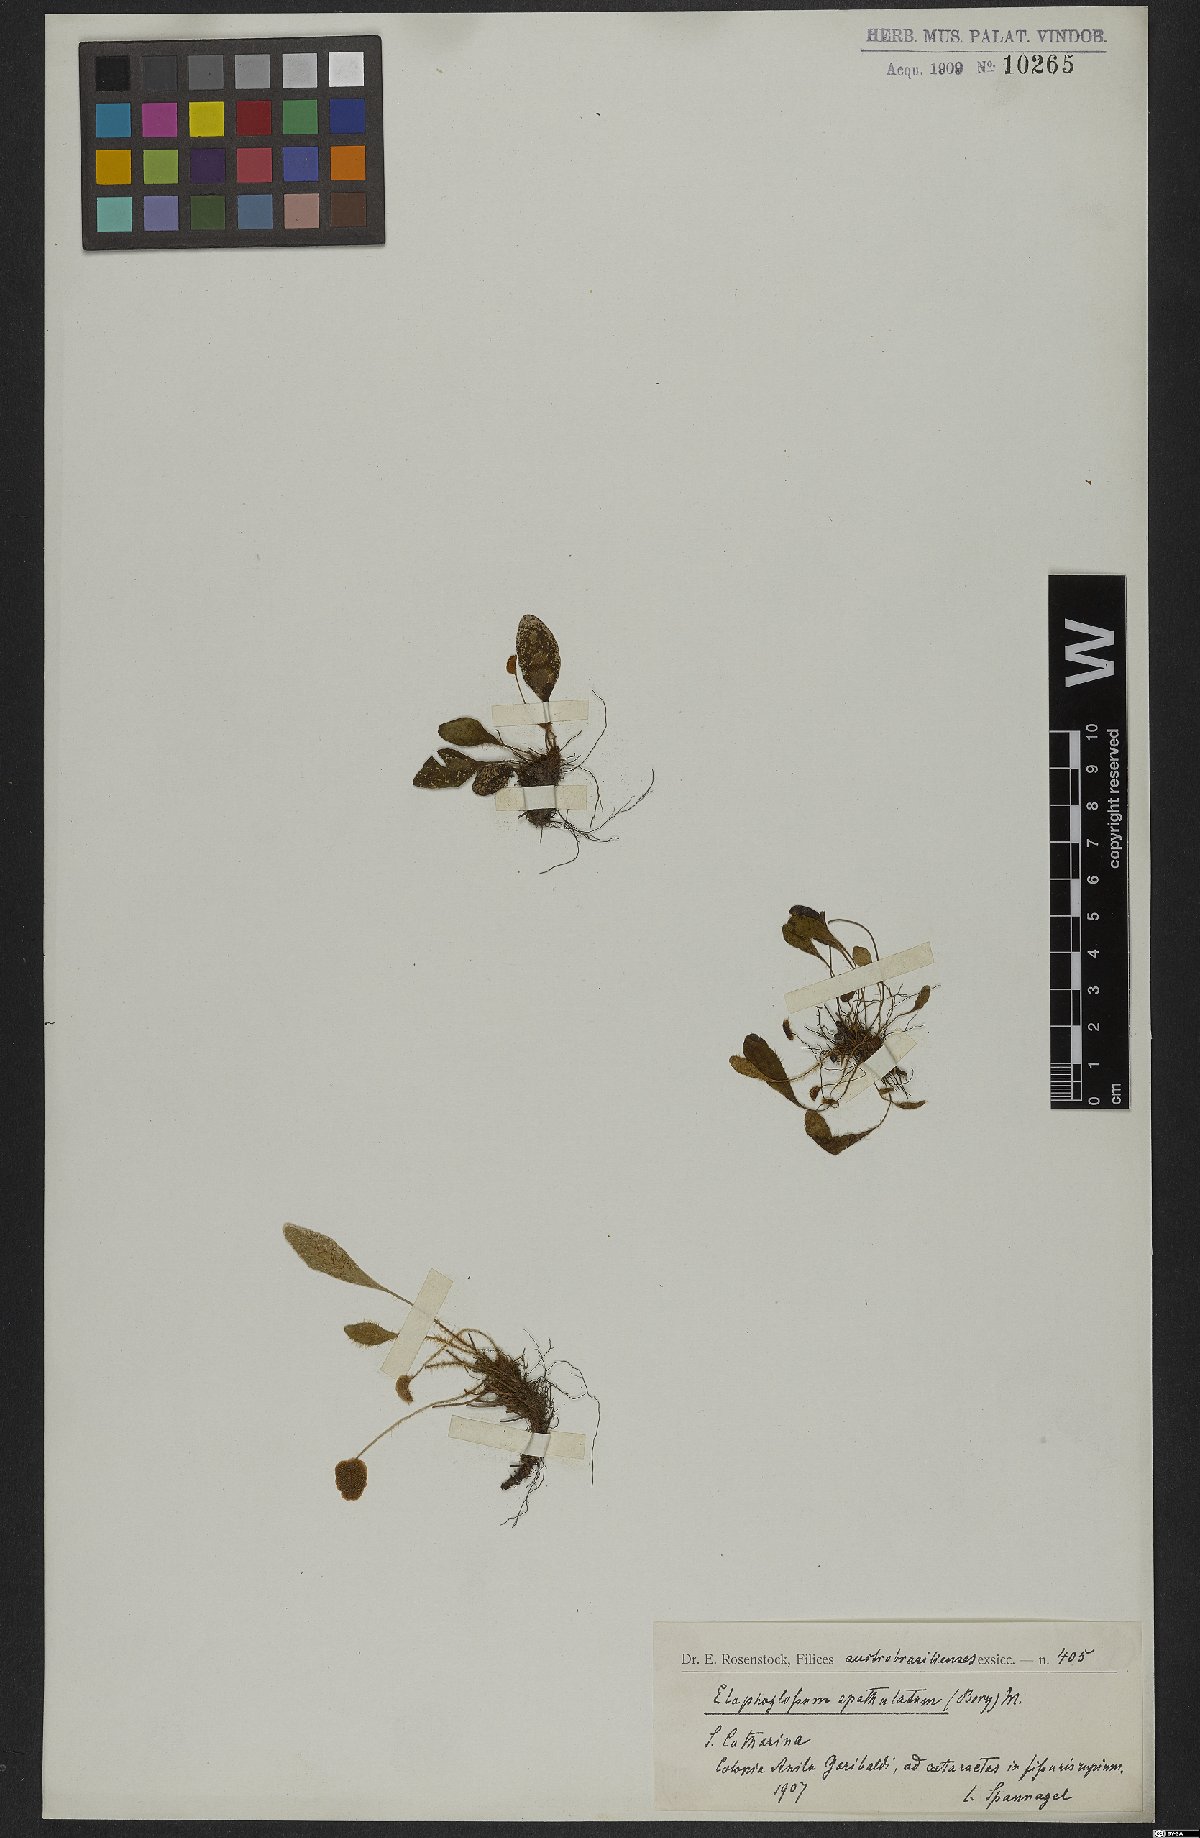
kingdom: Plantae
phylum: Tracheophyta
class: Polypodiopsida
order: Polypodiales
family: Dryopteridaceae
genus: Elaphoglossum
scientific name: Elaphoglossum spatulatum
